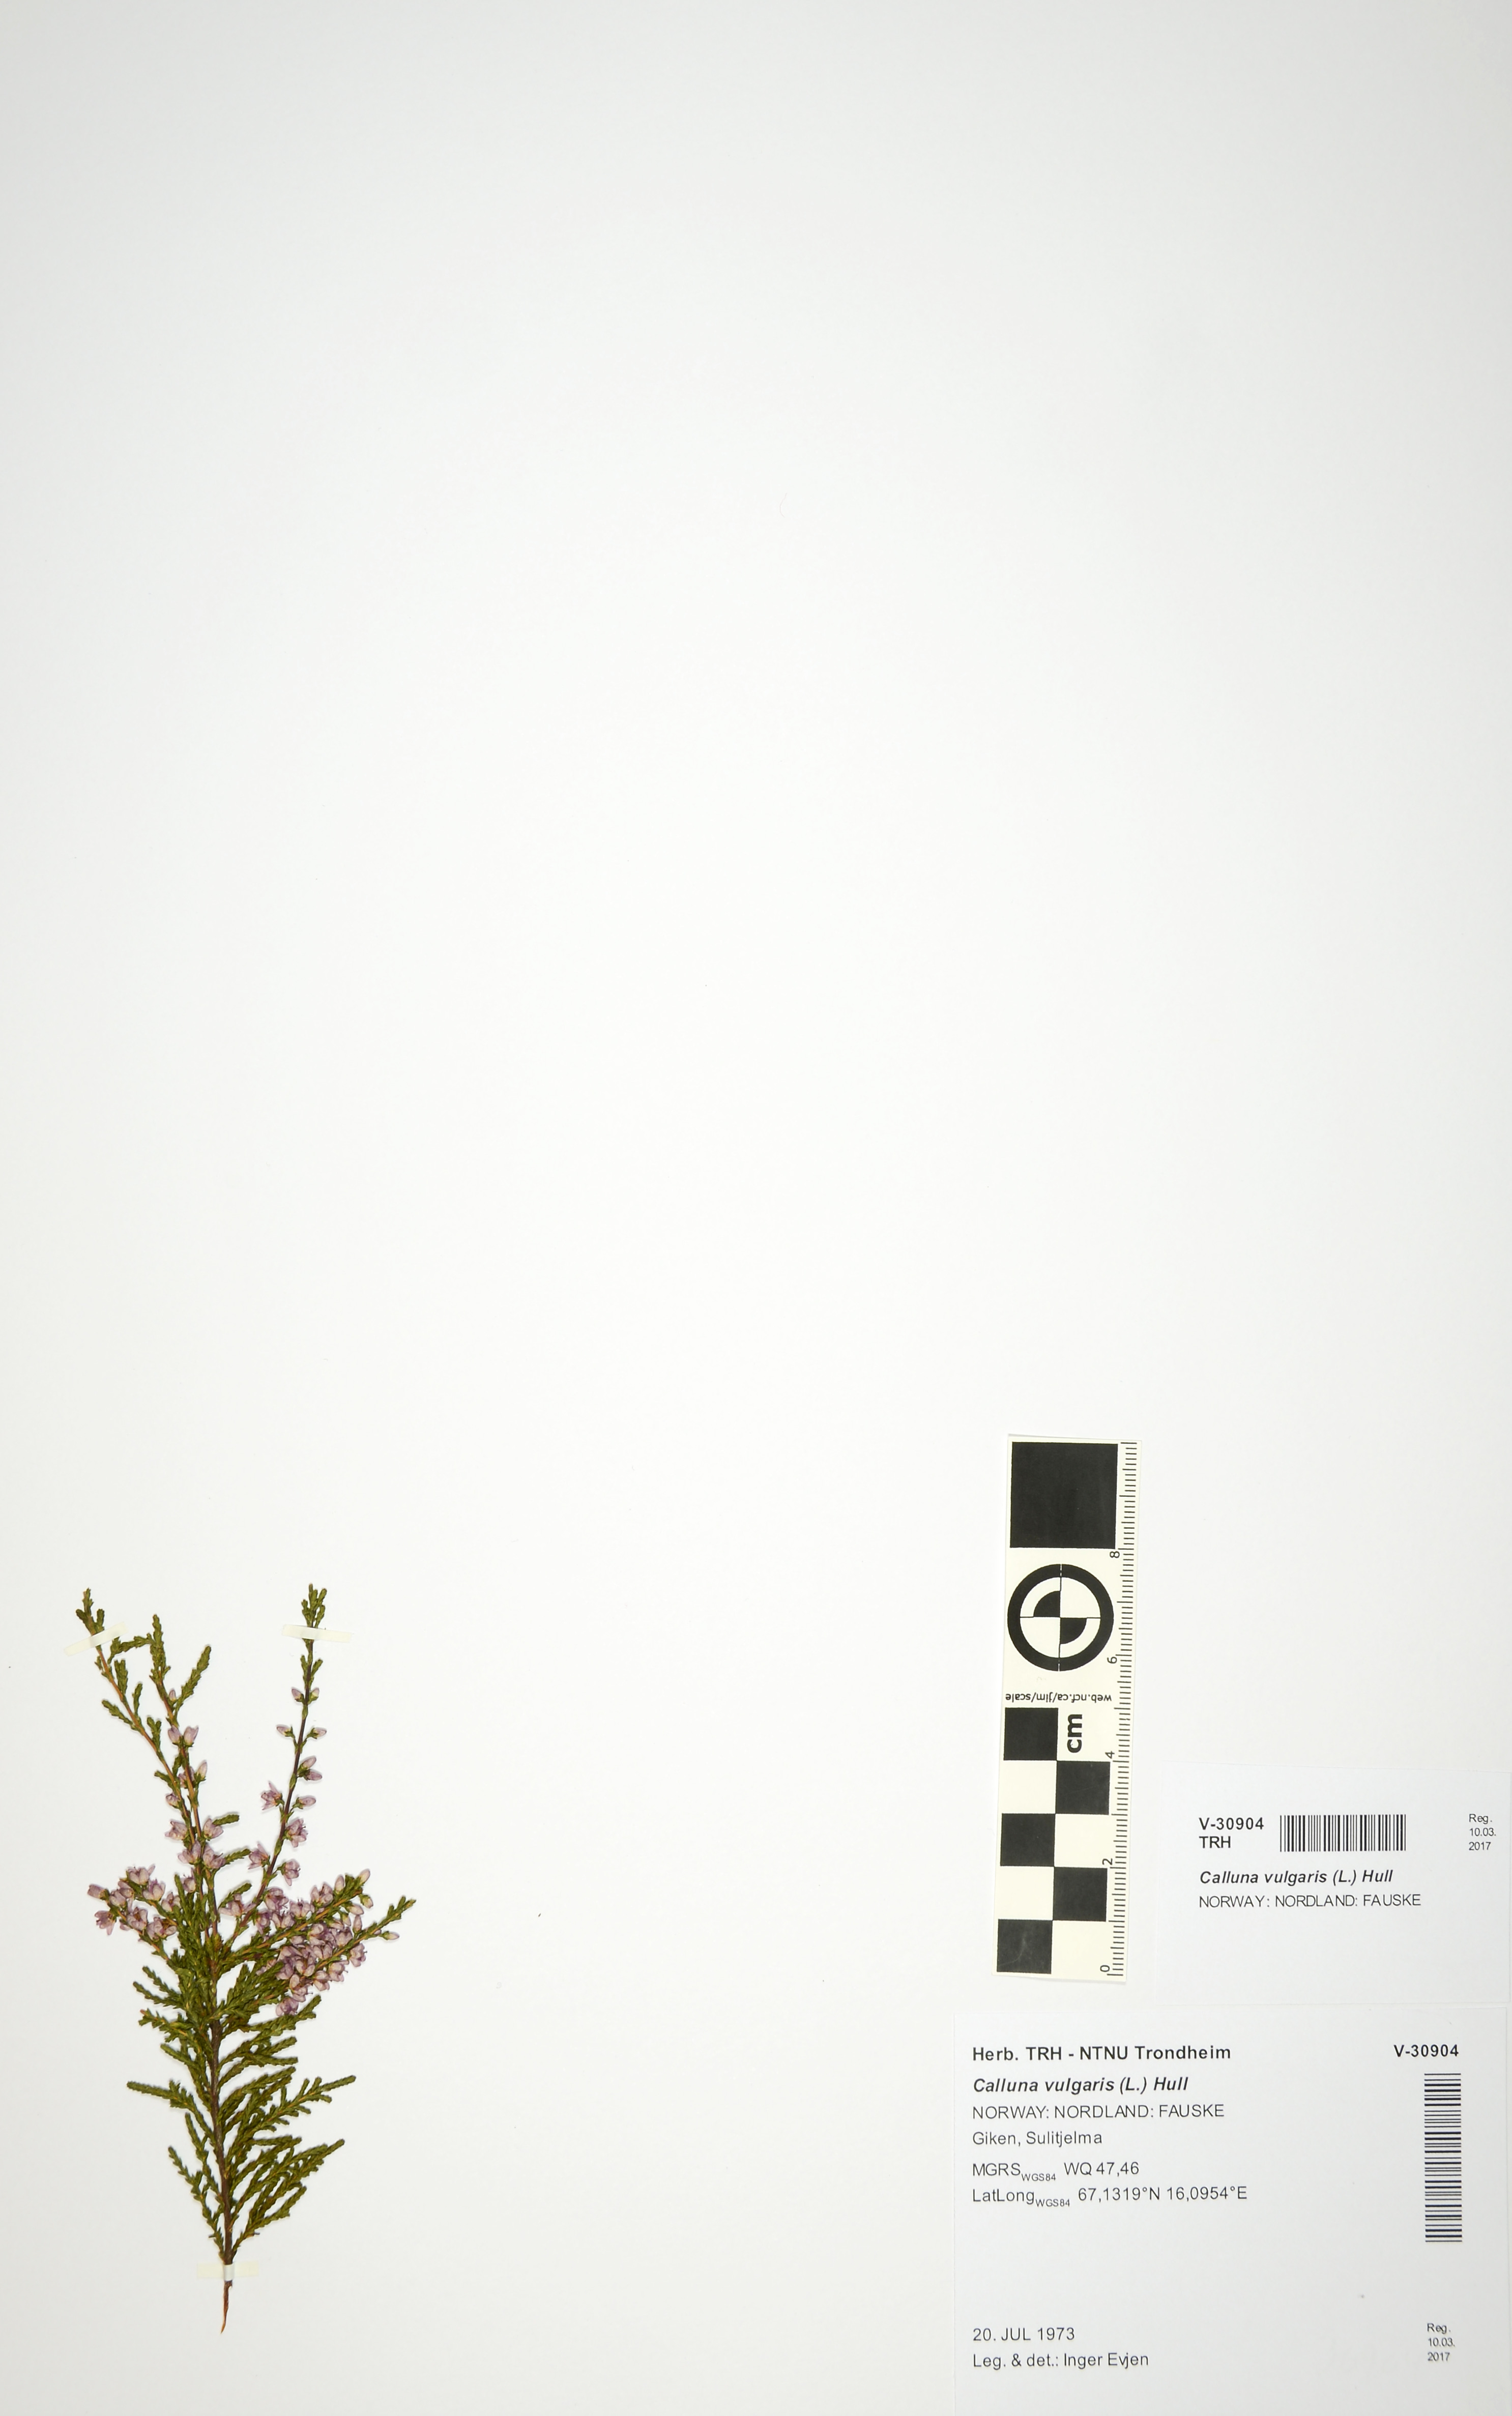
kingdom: Plantae
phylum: Tracheophyta
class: Magnoliopsida
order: Ericales
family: Ericaceae
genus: Calluna
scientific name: Calluna vulgaris
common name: Heather
